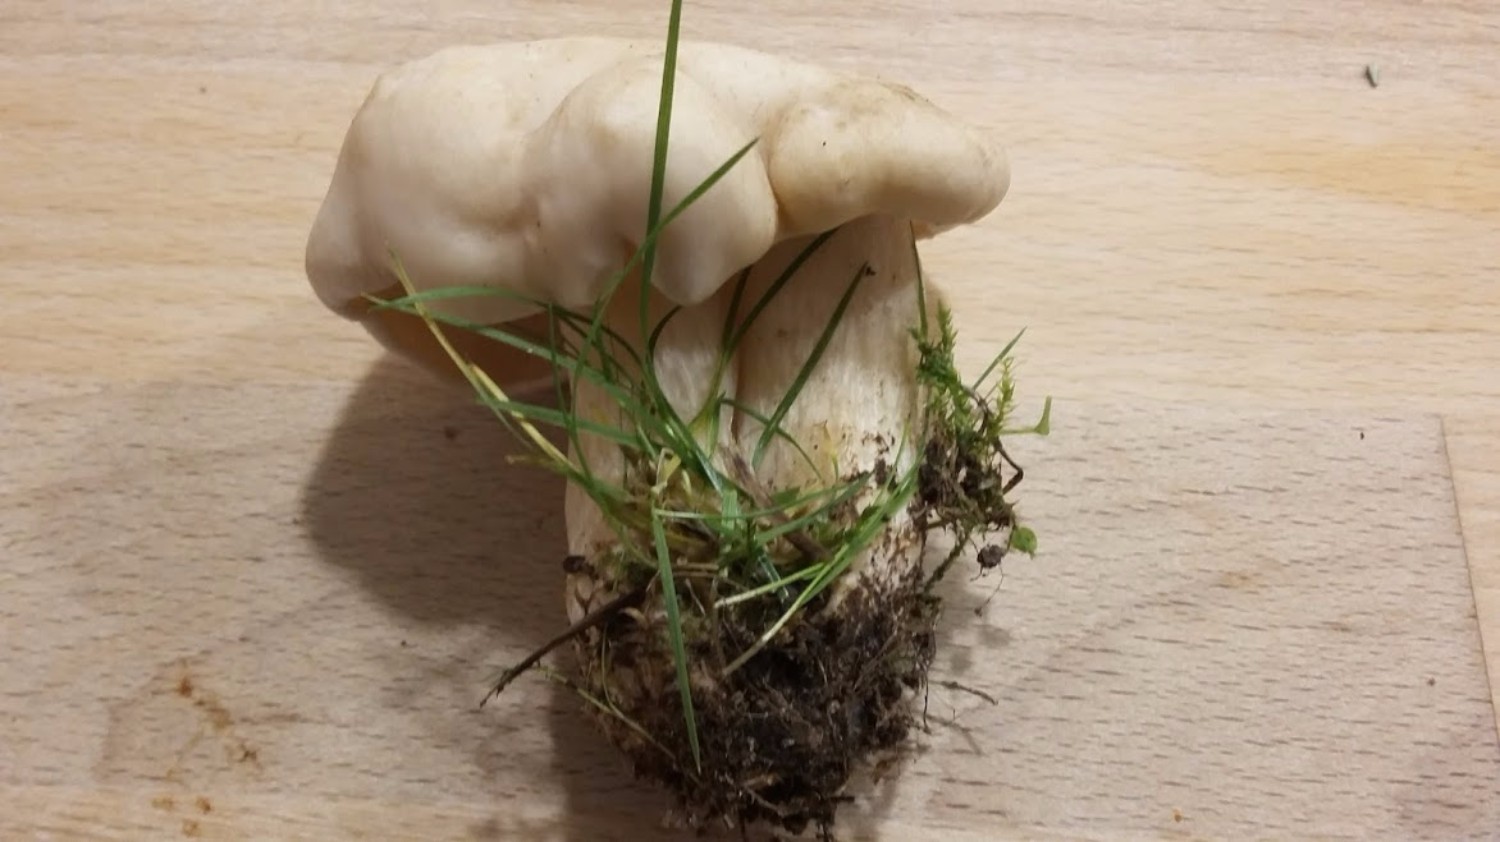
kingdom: Fungi
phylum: Basidiomycota
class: Agaricomycetes
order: Agaricales
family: Lyophyllaceae
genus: Calocybe
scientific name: Calocybe gambosa
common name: vårmusseron
